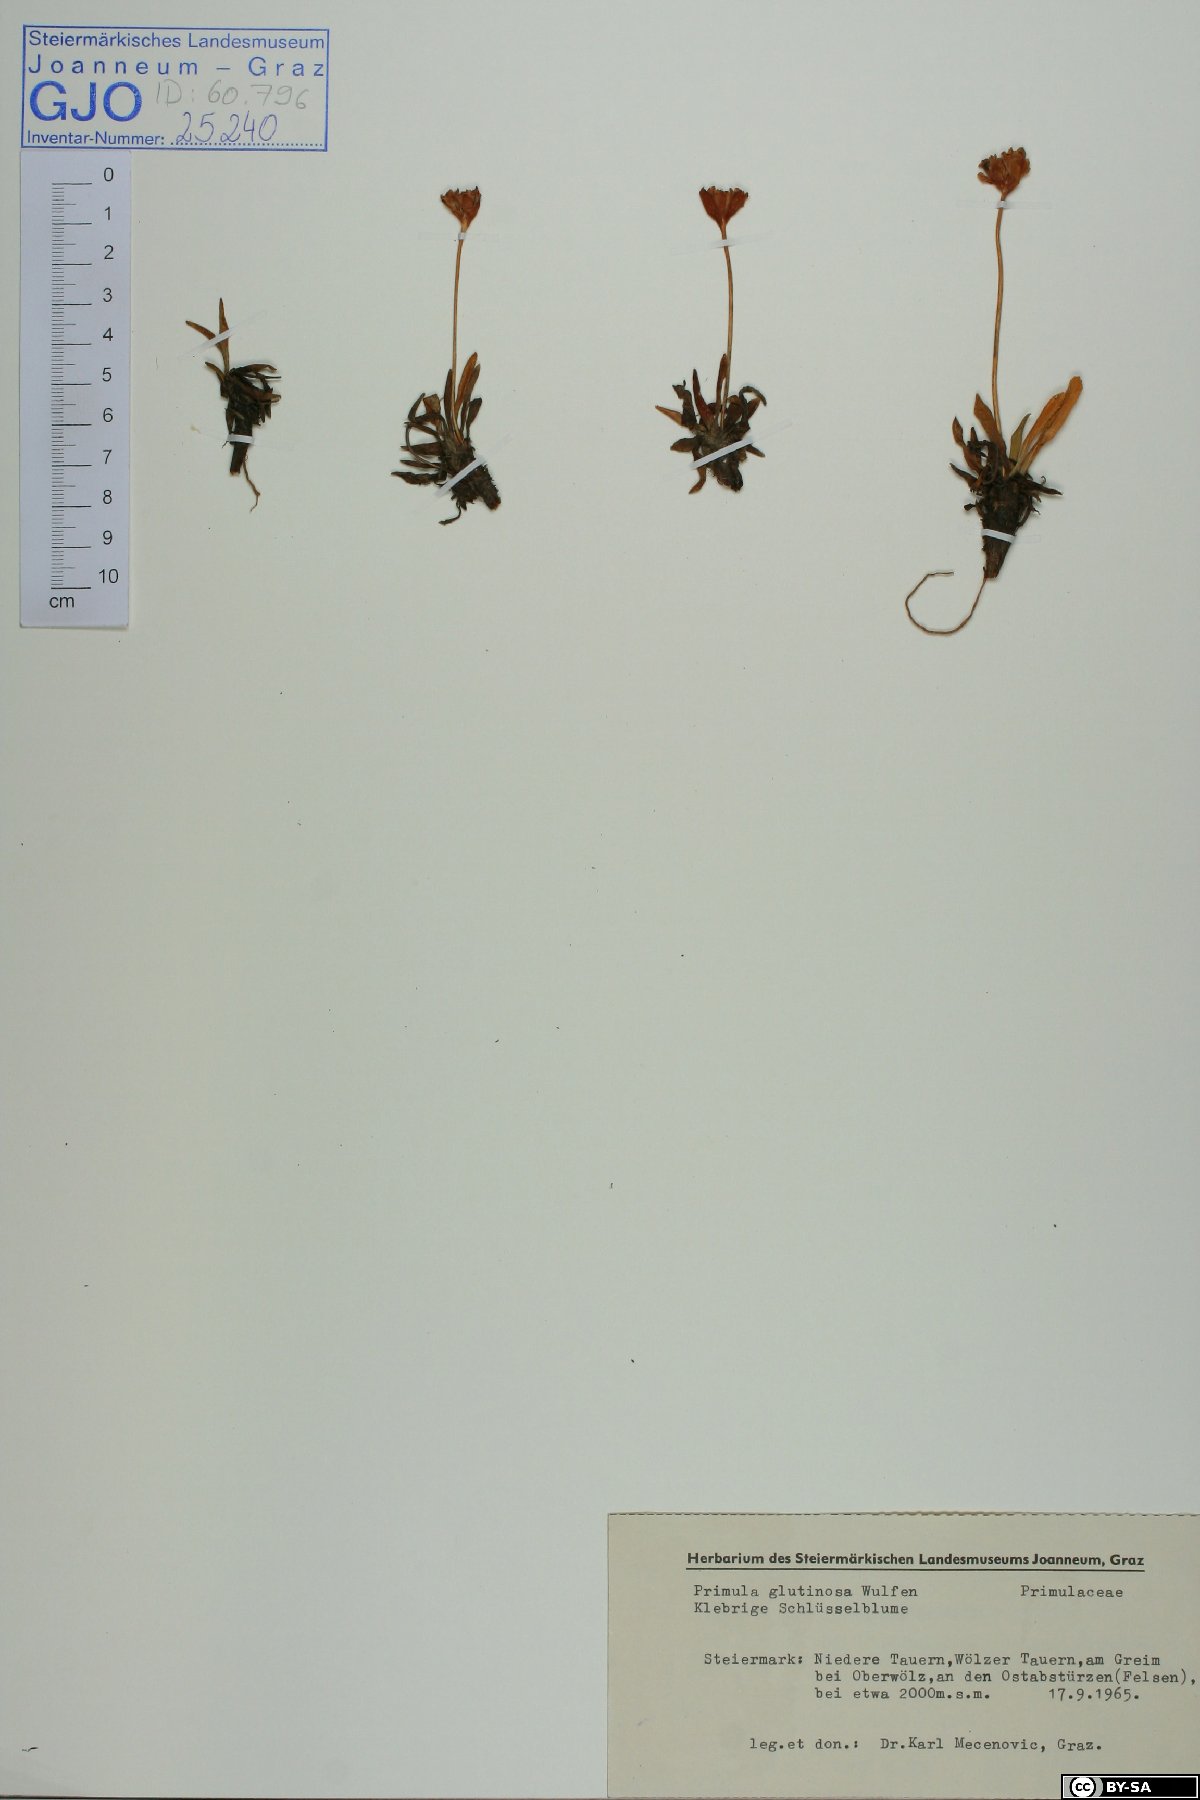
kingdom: Plantae
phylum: Tracheophyta
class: Magnoliopsida
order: Ericales
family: Primulaceae
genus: Primula
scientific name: Primula glutinosa
